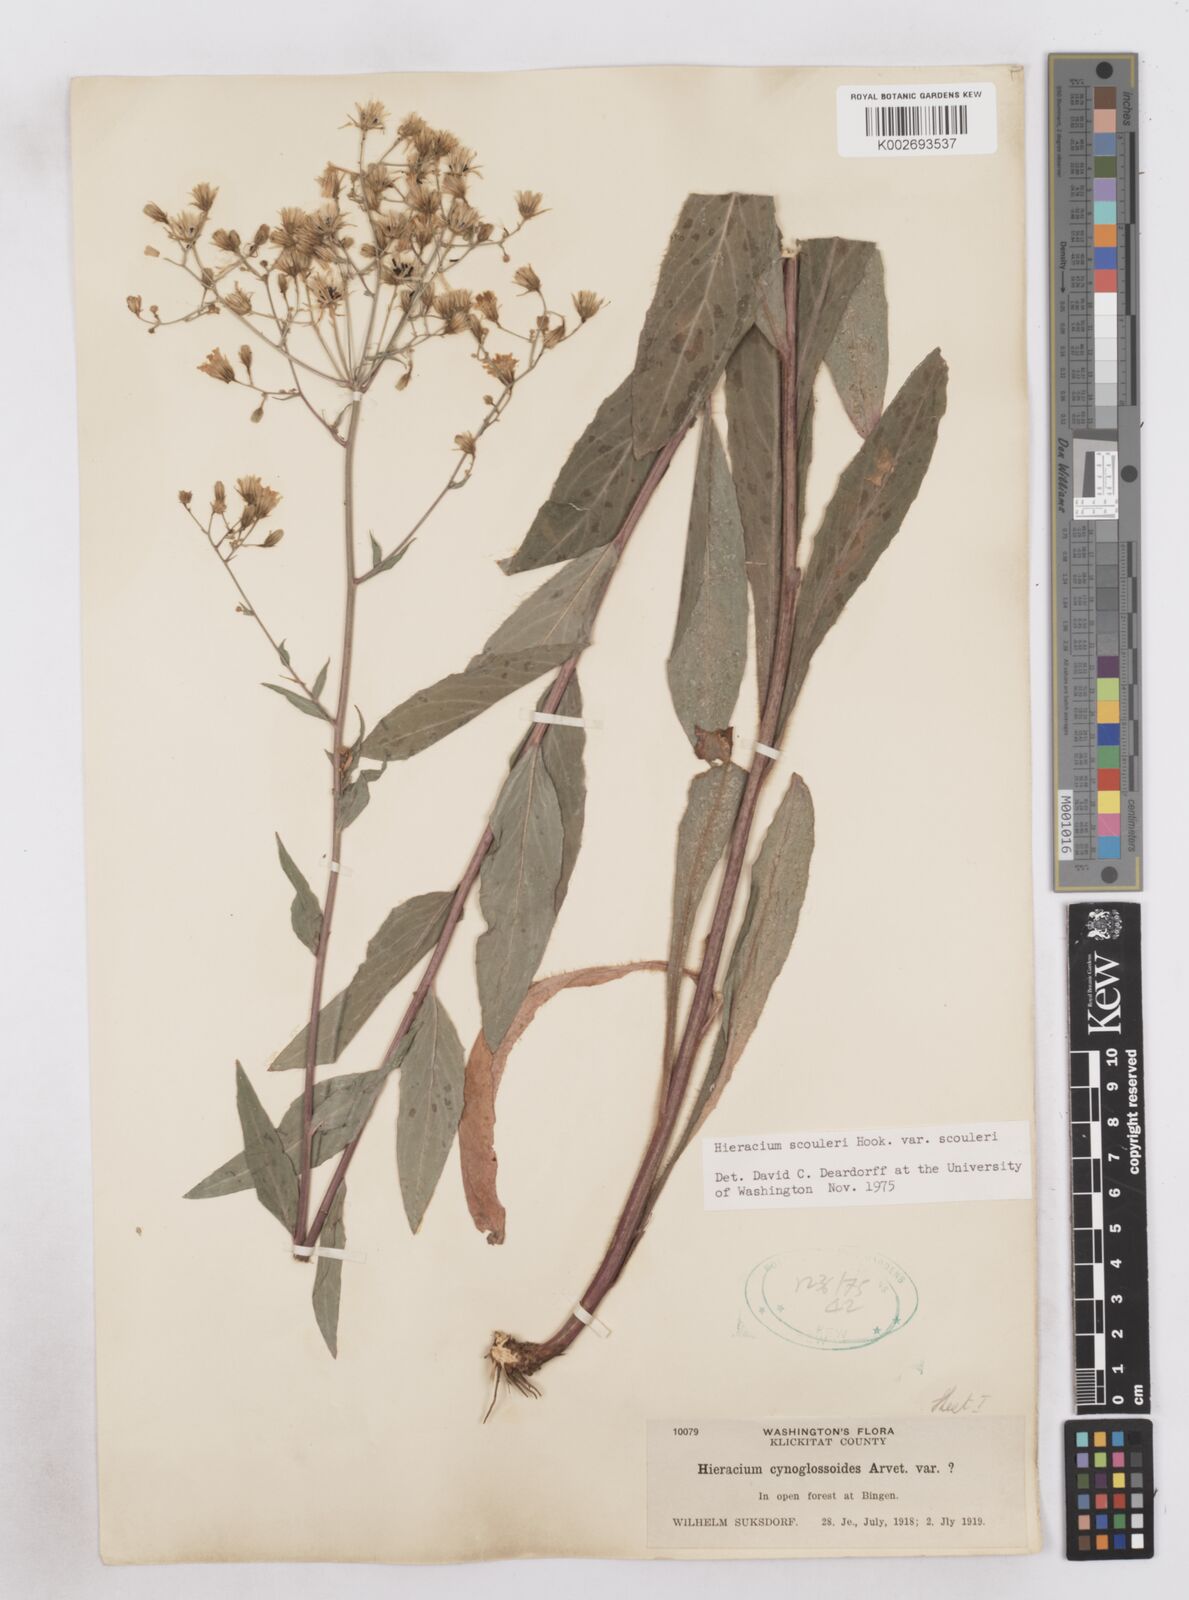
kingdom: Plantae
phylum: Tracheophyta
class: Magnoliopsida
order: Asterales
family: Asteraceae
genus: Hieracium
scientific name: Hieracium scouleri
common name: Hound's-tongue hawkweed
